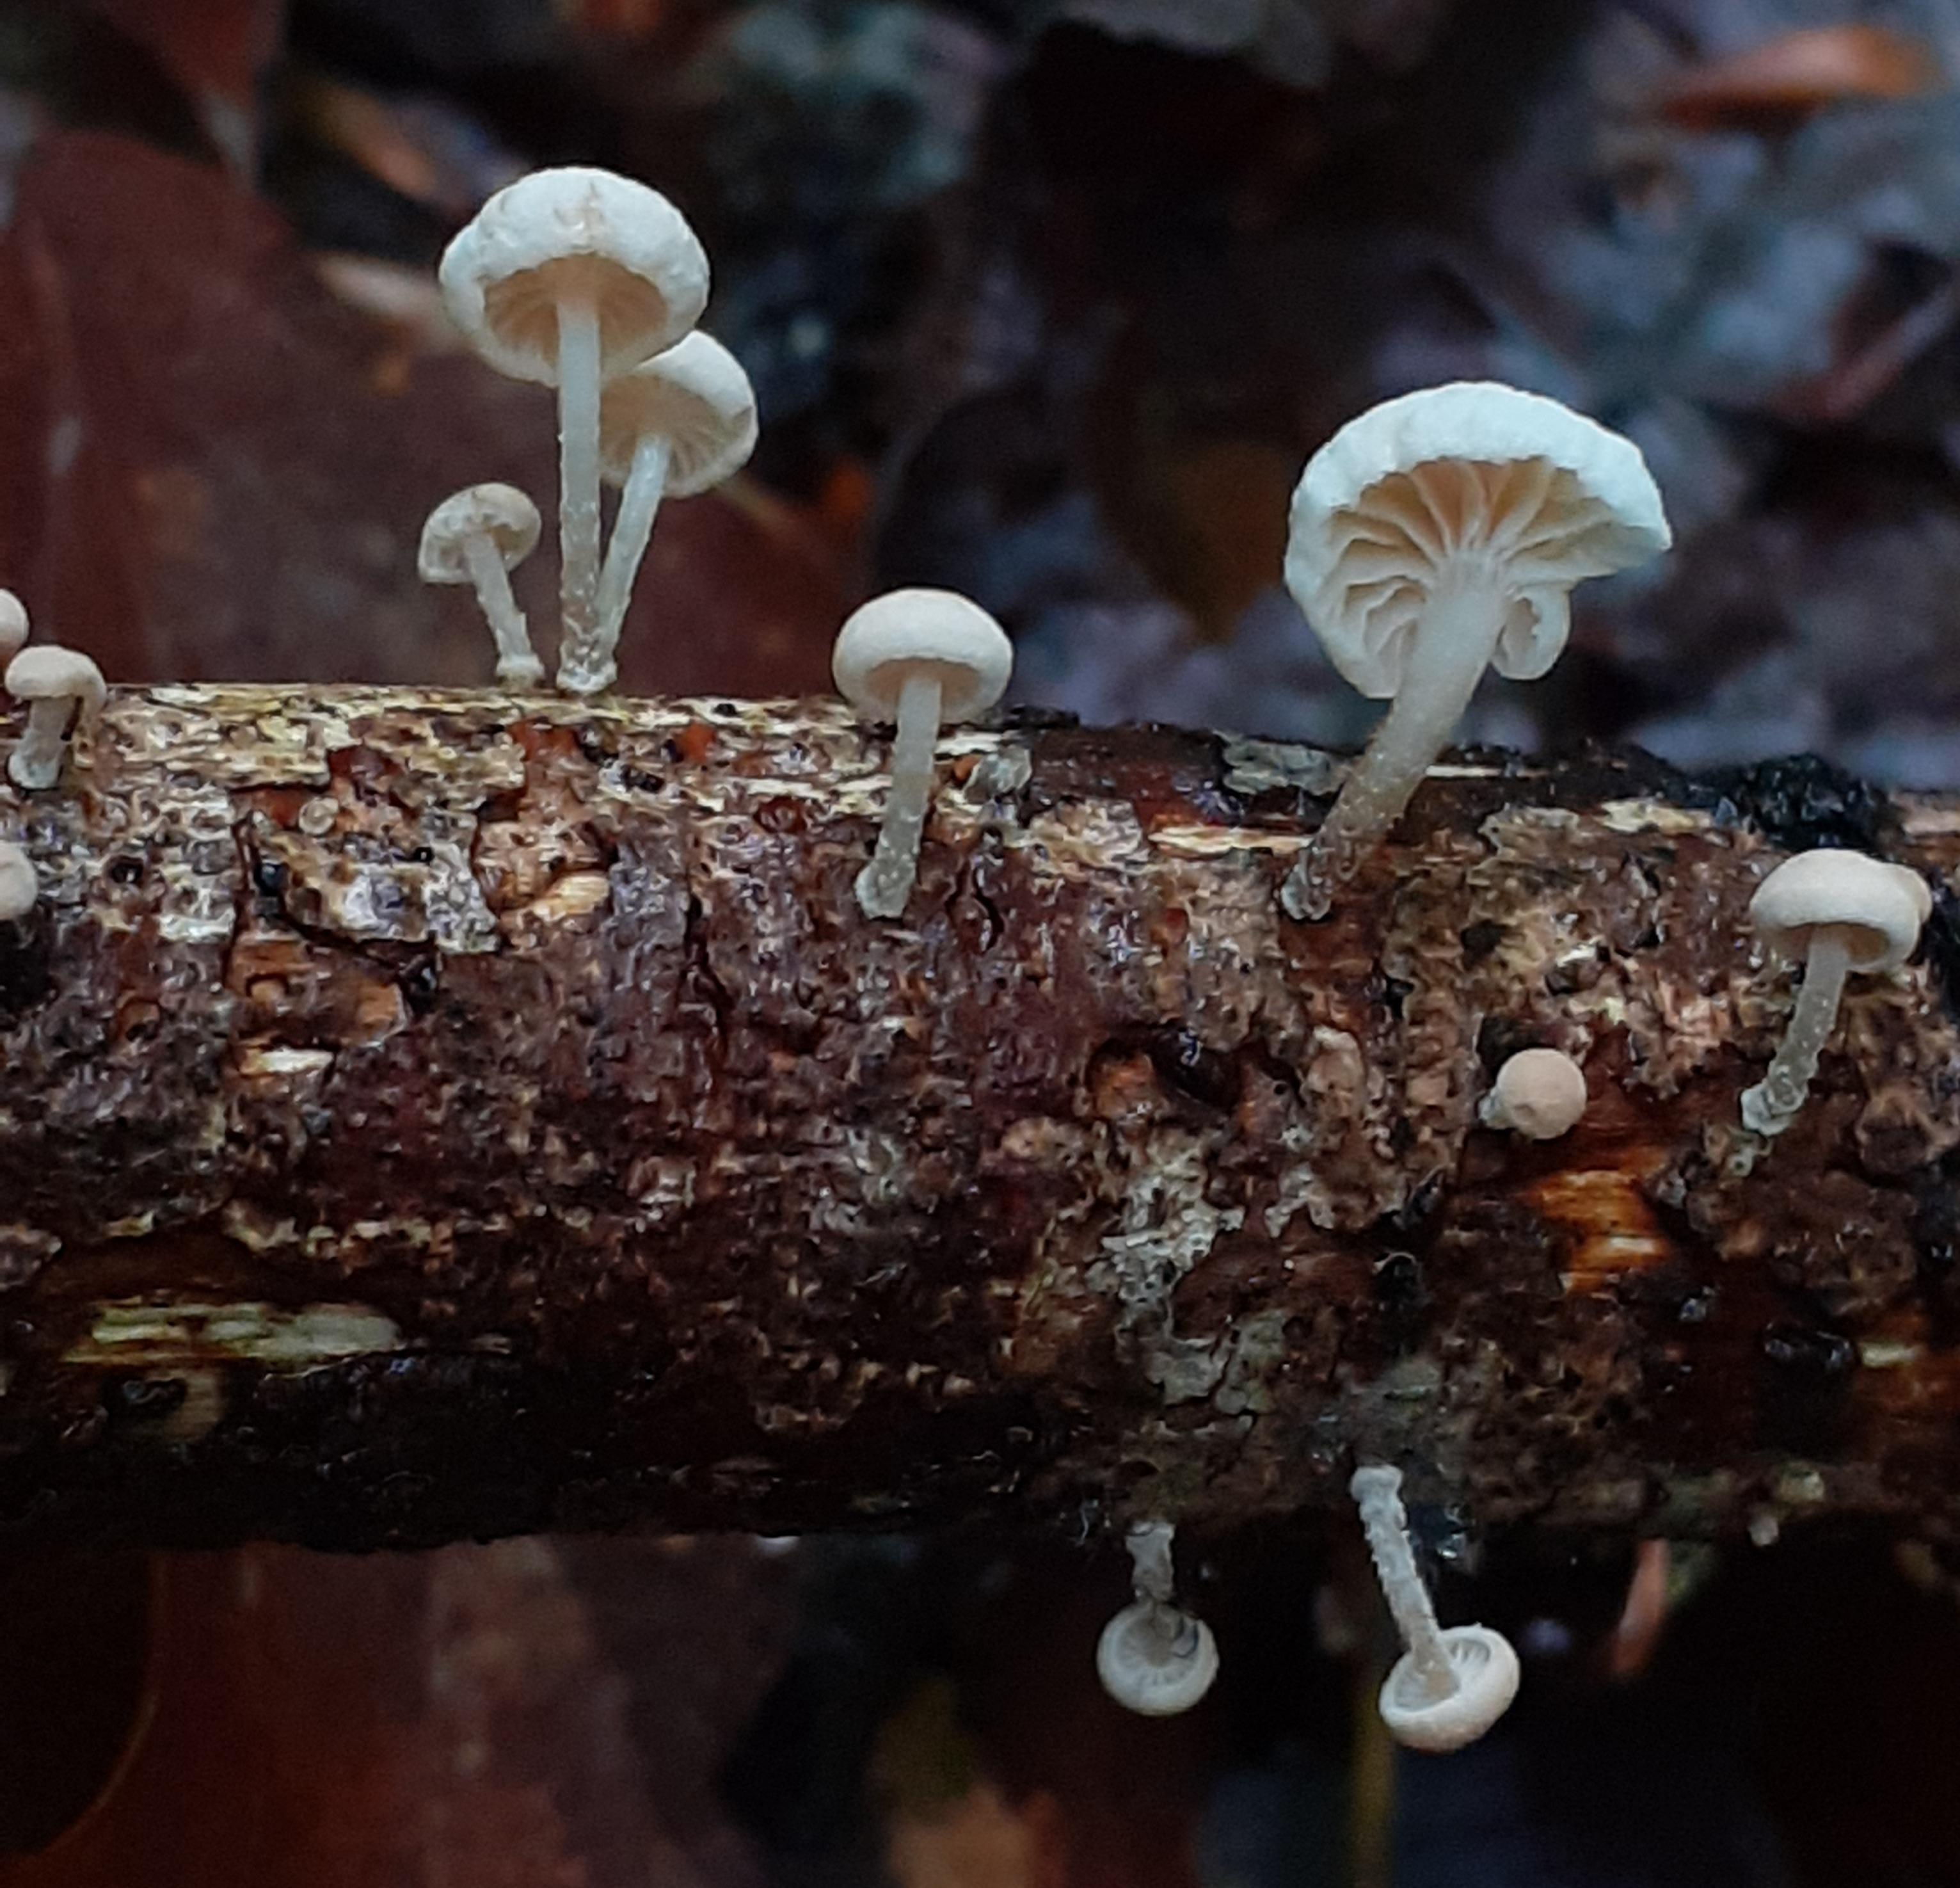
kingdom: Fungi
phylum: Basidiomycota
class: Agaricomycetes
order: Agaricales
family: Omphalotaceae
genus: Collybiopsis
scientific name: Collybiopsis ramealis
